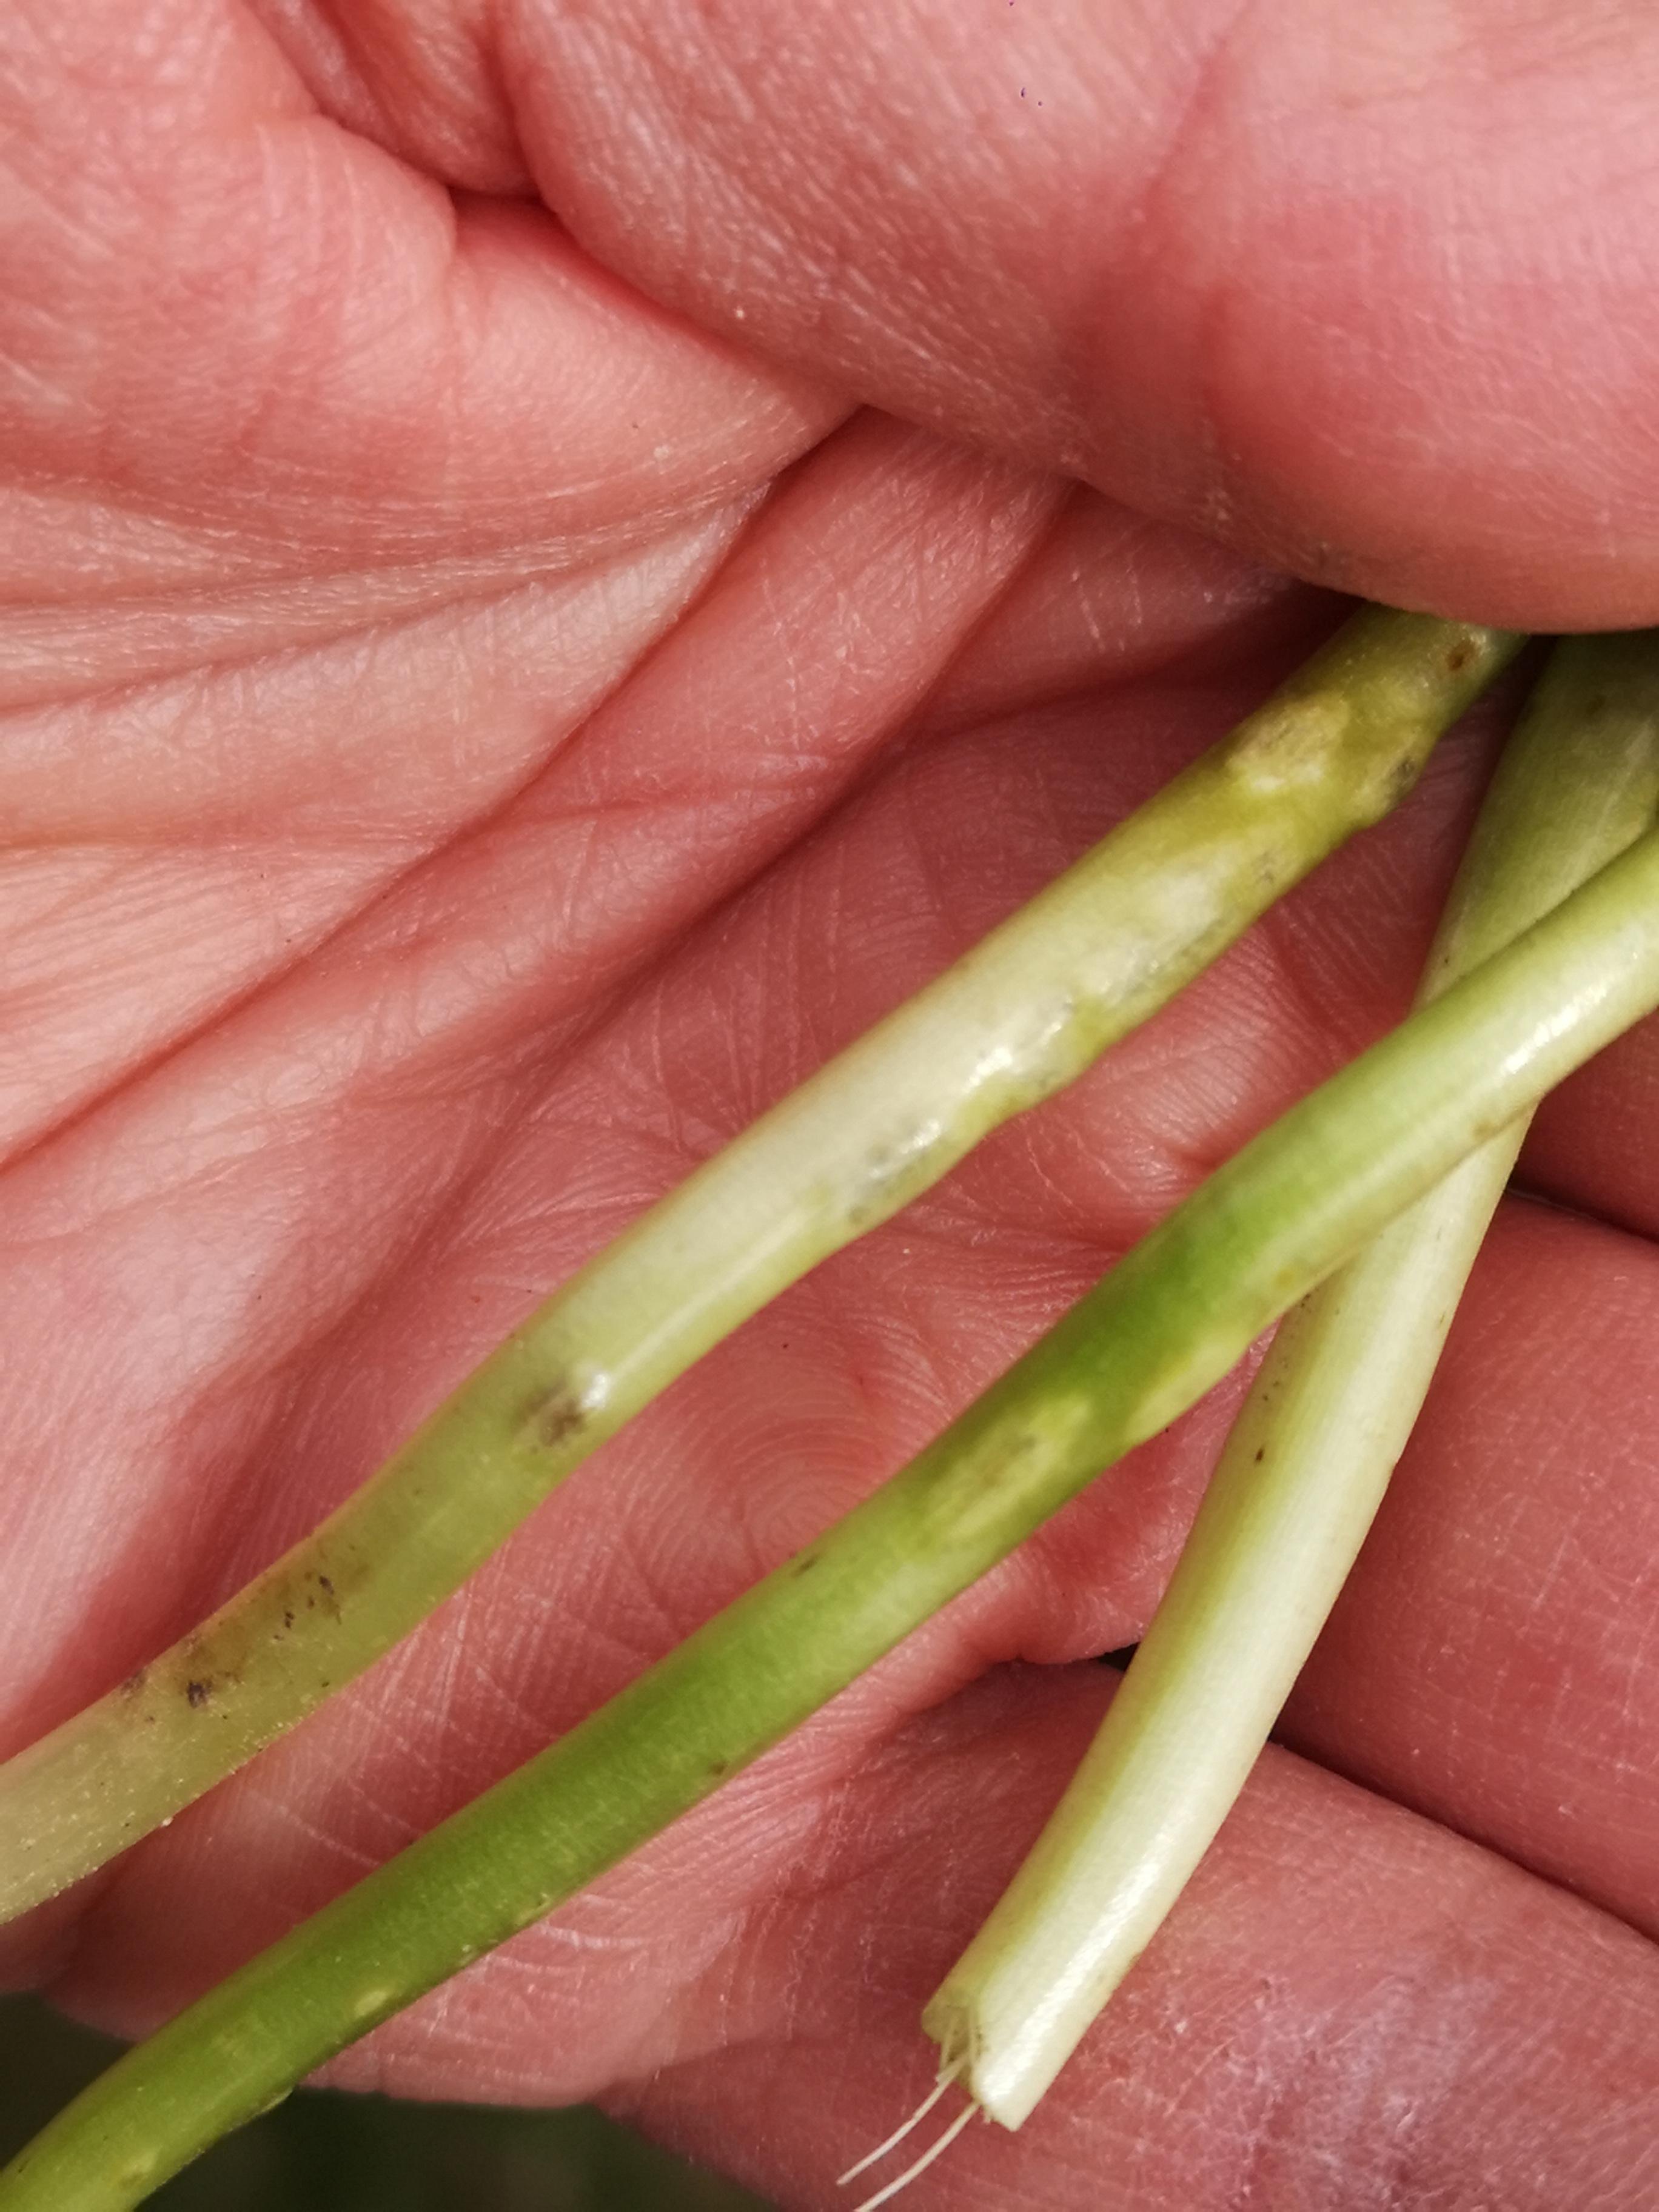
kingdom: Fungi
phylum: Basidiomycota
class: Ustilaginomycetes
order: Urocystidales
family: Urocystidaceae
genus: Urocystis
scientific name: Urocystis eranthidis
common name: erantis-brand
